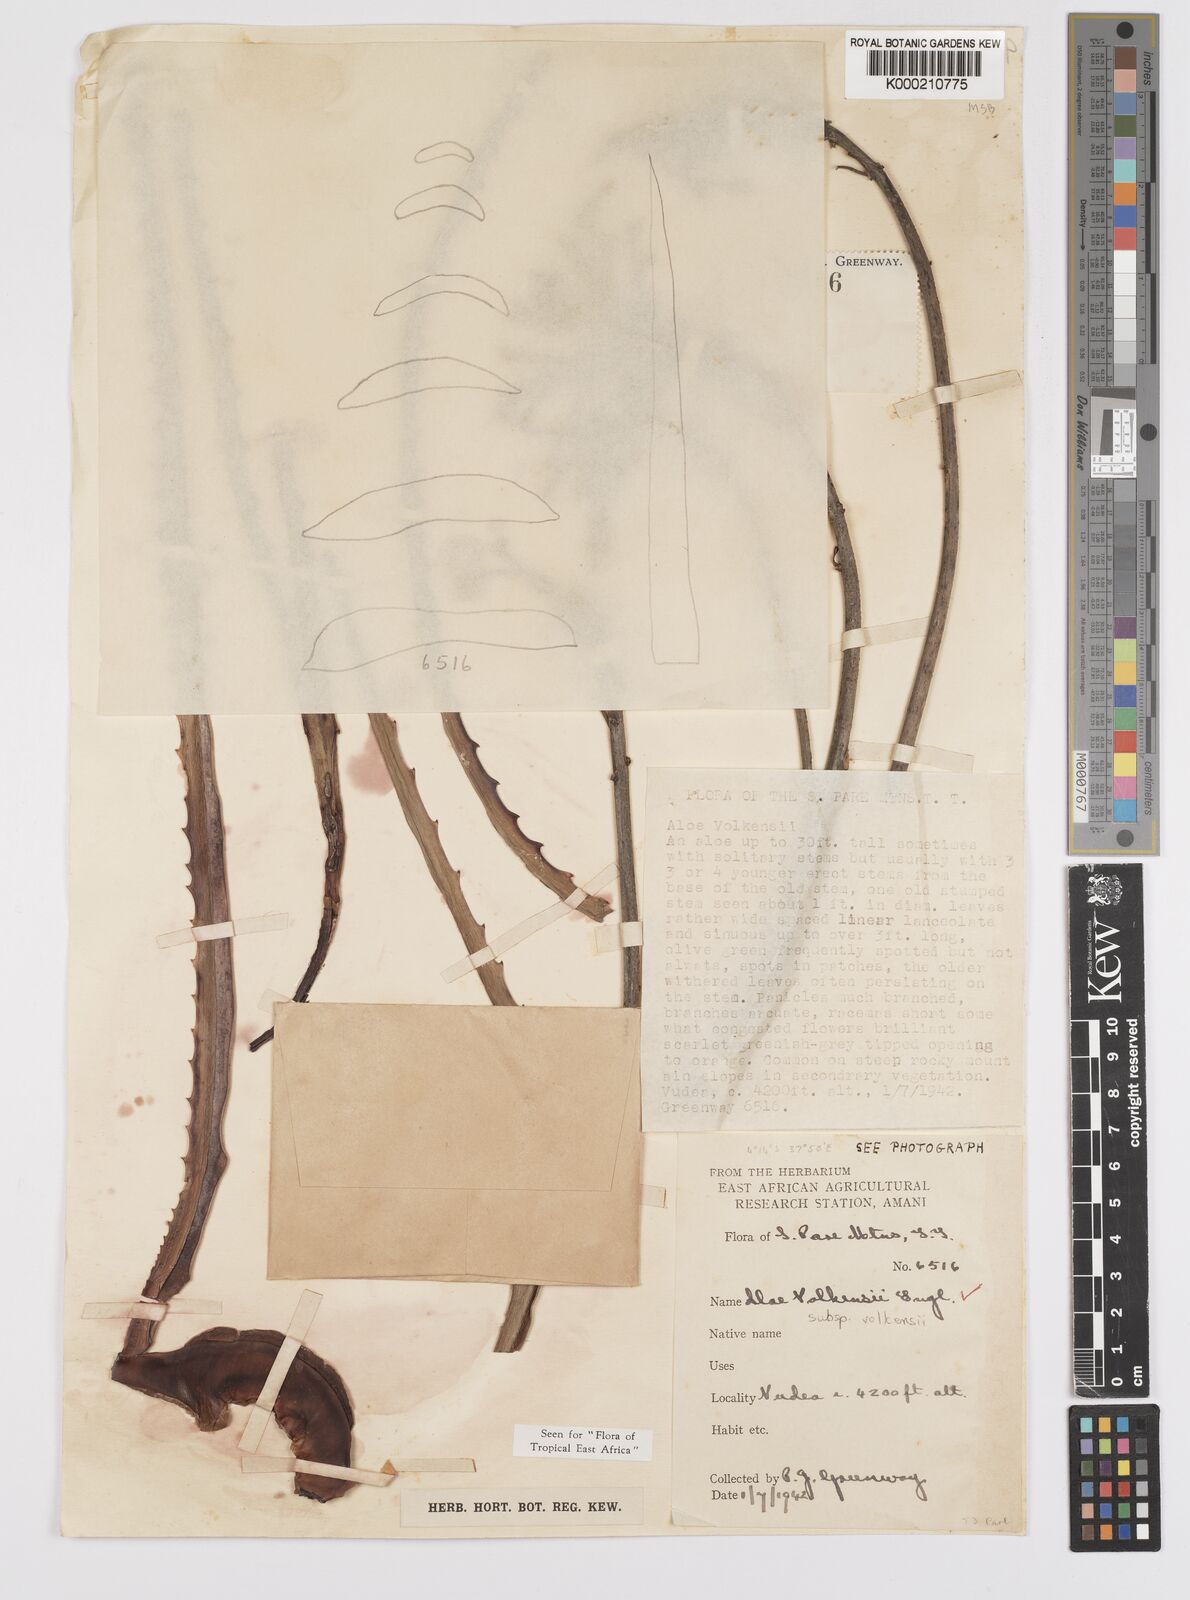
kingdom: Plantae
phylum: Tracheophyta
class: Liliopsida
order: Asparagales
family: Asphodelaceae
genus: Aloe
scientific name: Aloe volkensii
